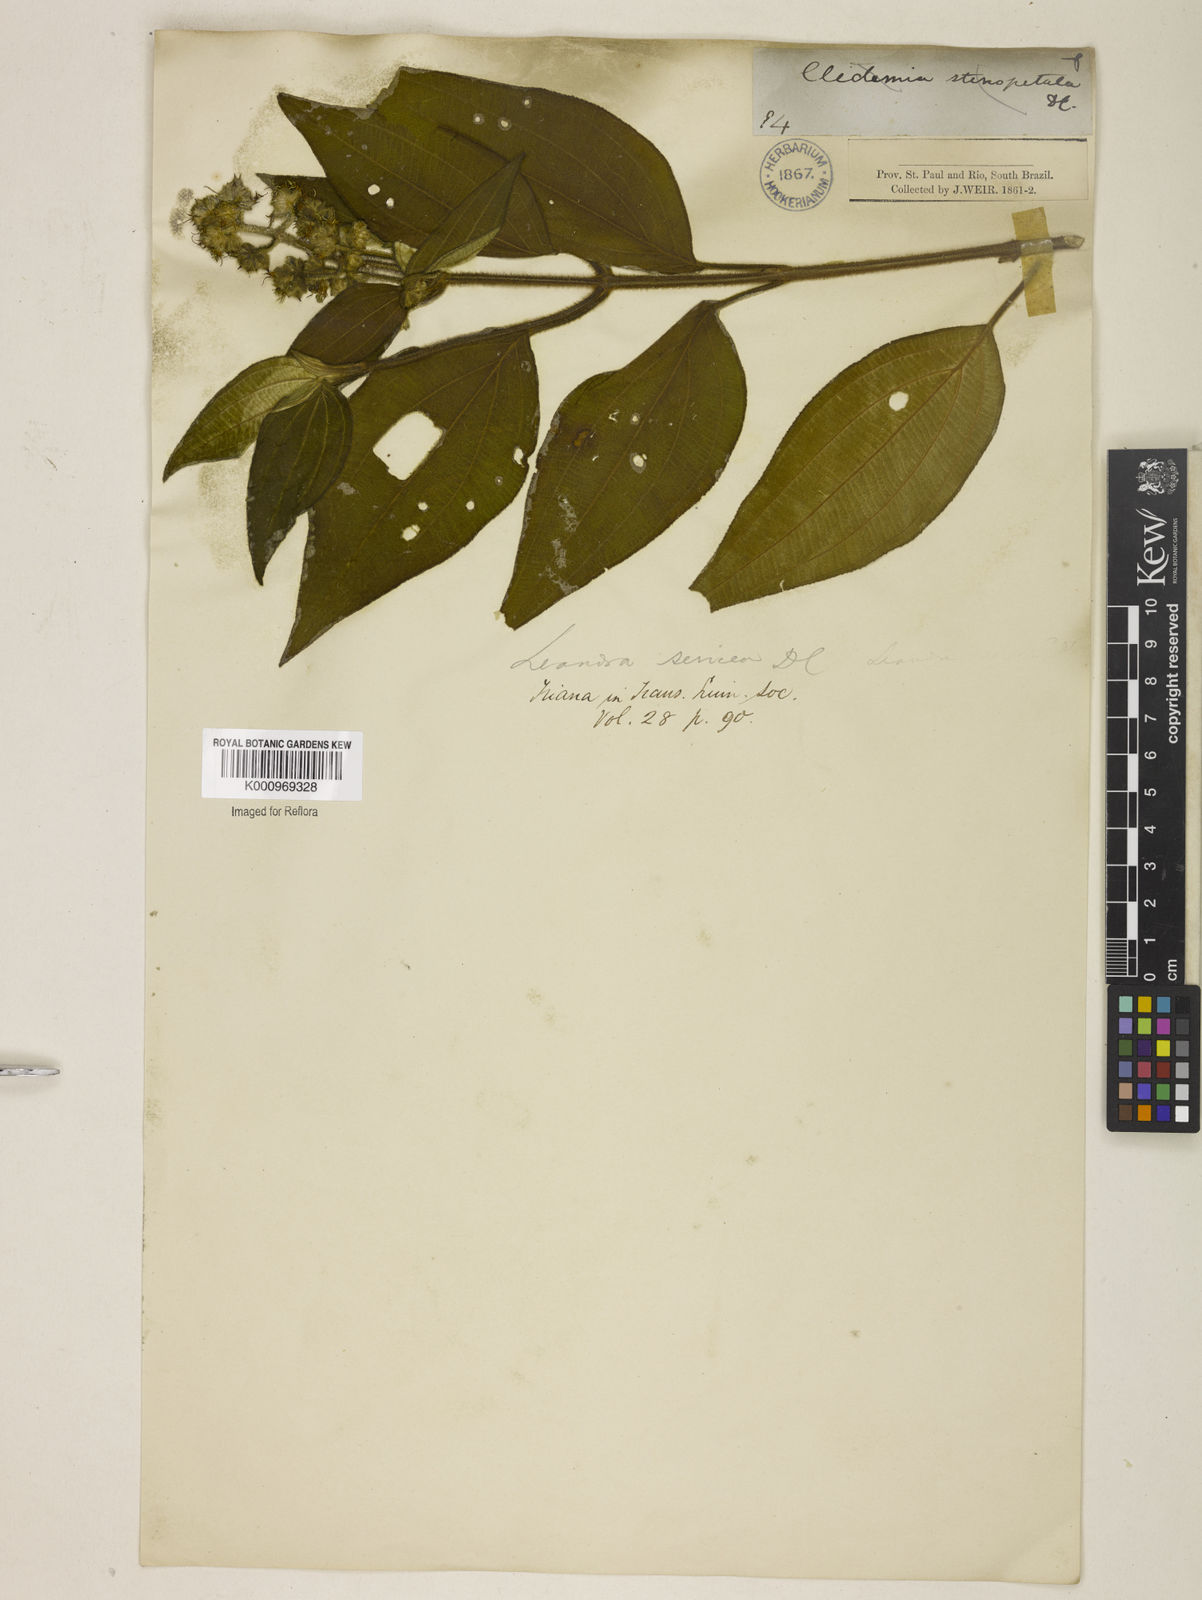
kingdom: Plantae
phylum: Tracheophyta
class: Magnoliopsida
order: Myrtales
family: Melastomataceae
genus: Miconia
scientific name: Miconia raddii
